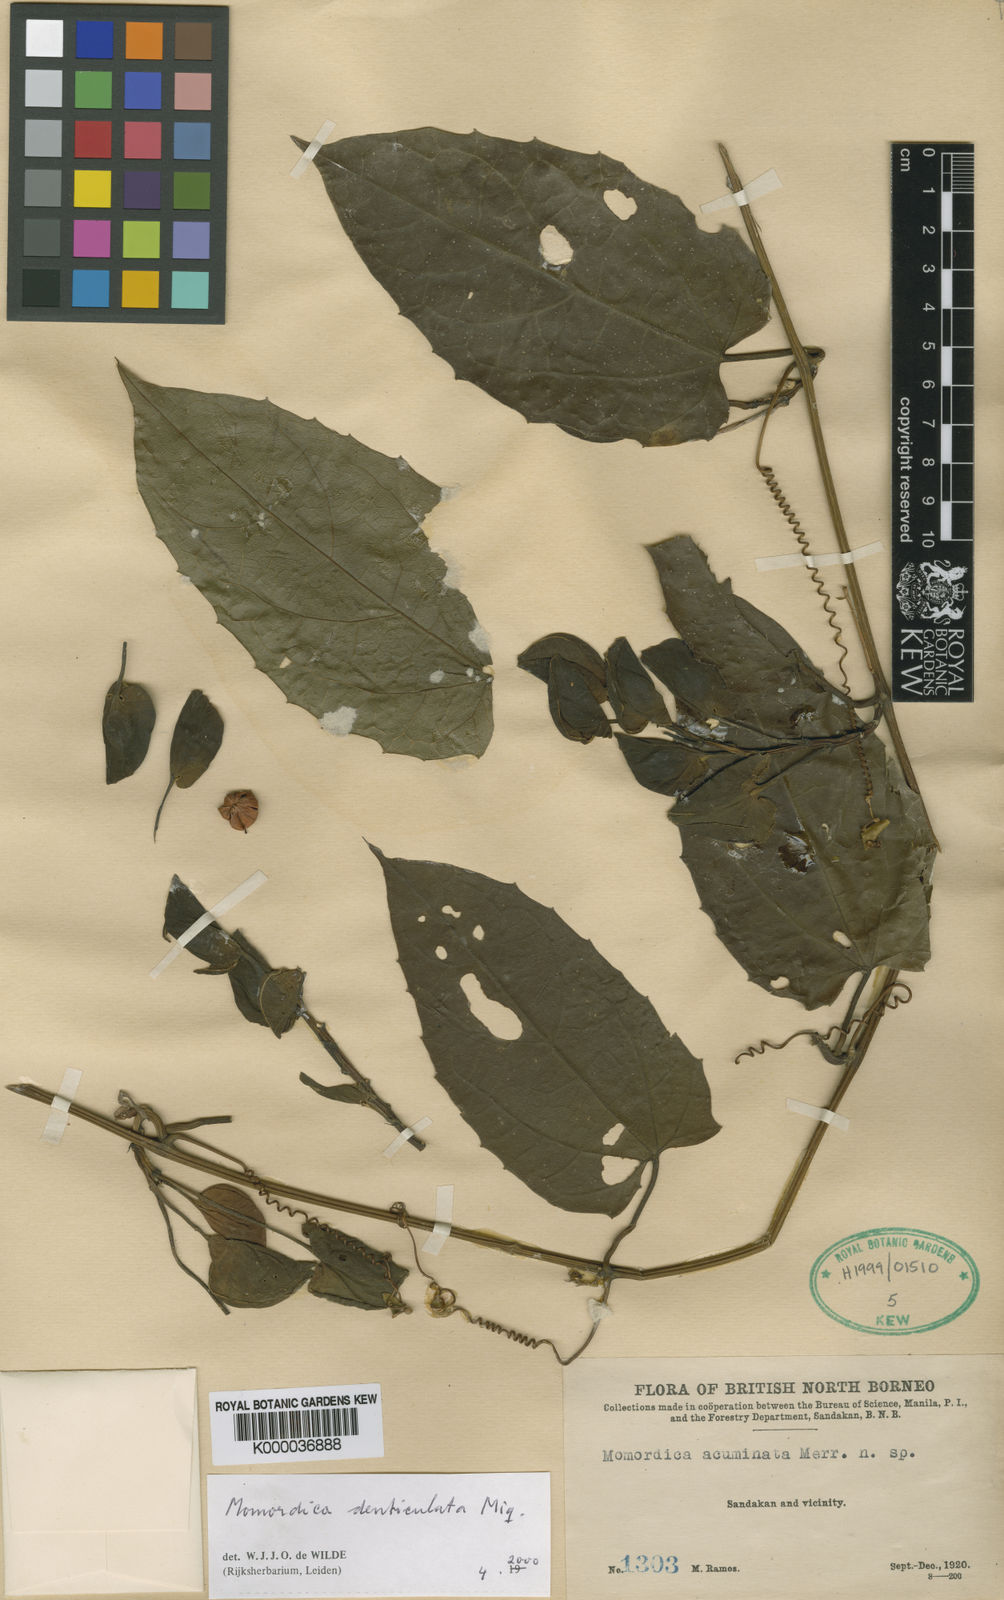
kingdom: Plantae
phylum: Tracheophyta
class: Magnoliopsida
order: Cucurbitales
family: Cucurbitaceae
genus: Momordica
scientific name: Momordica denticulata
